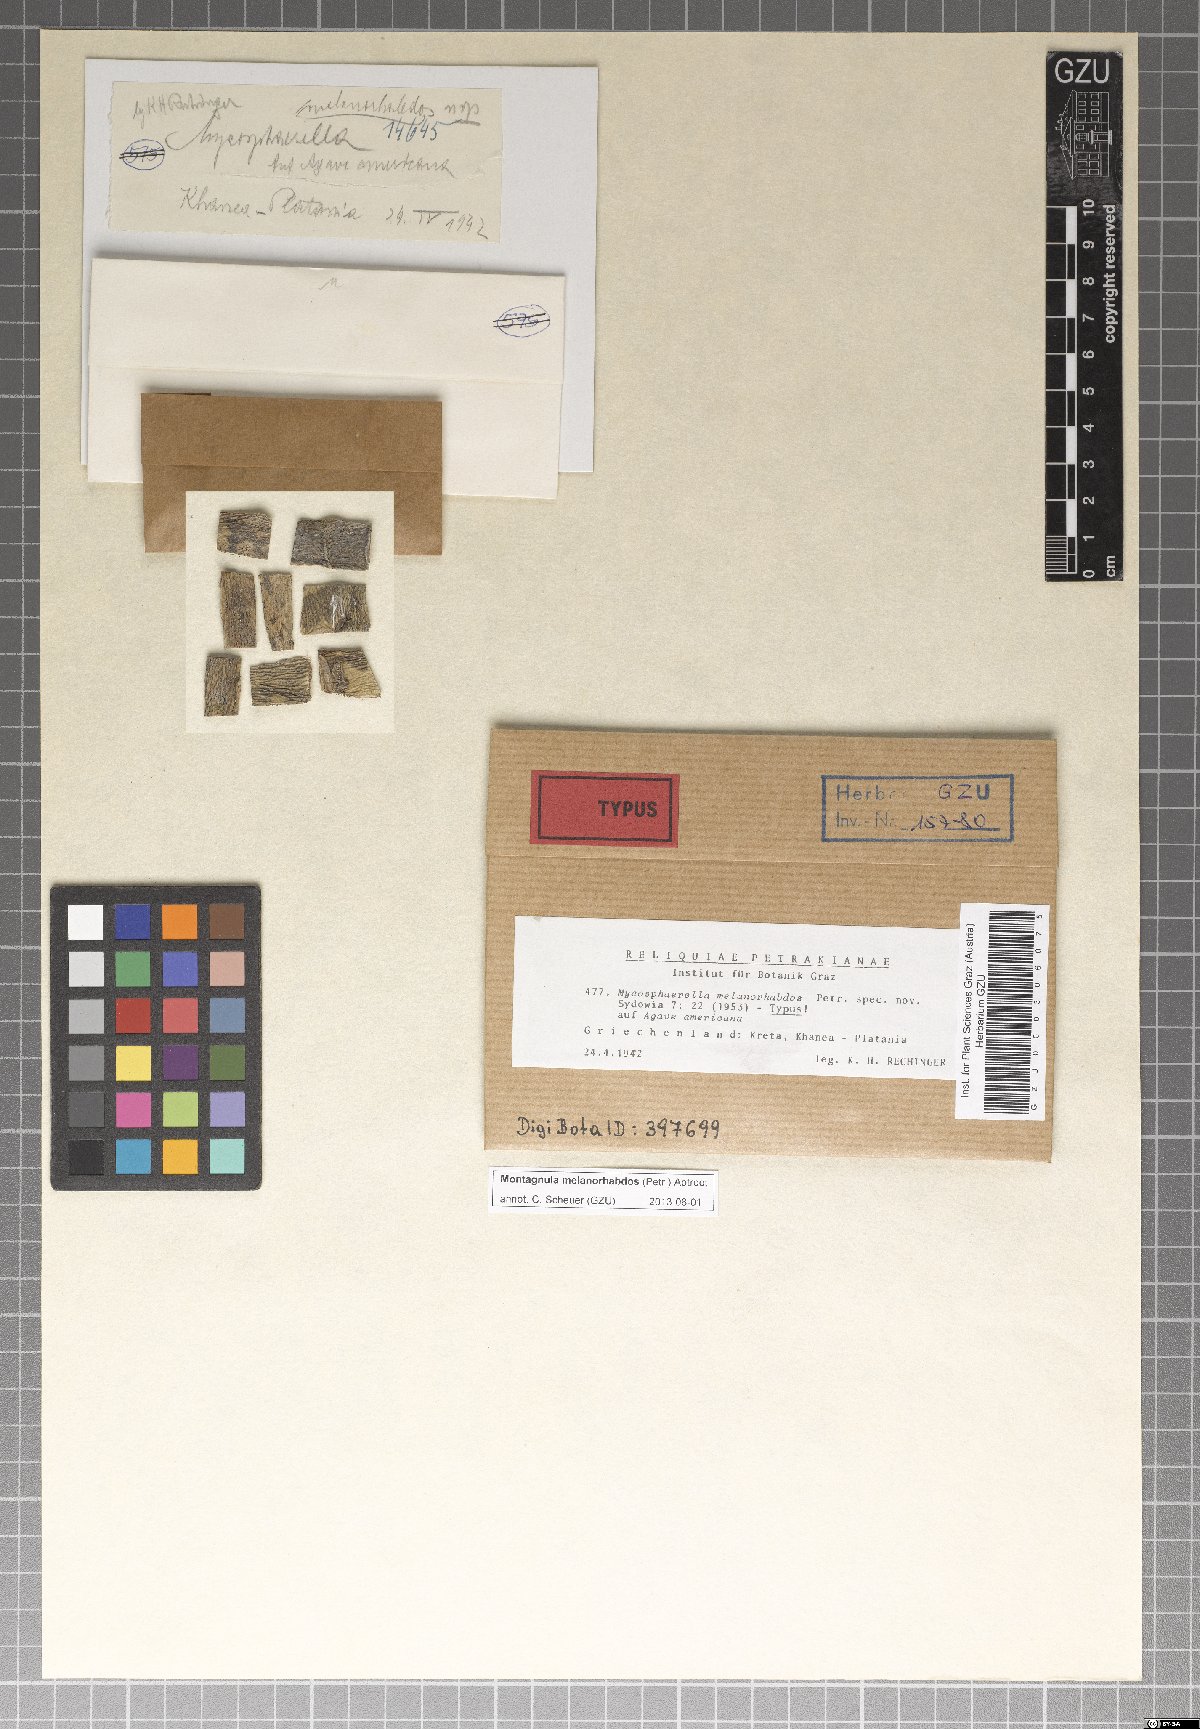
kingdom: Fungi
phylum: Ascomycota
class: Dothideomycetes
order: Pleosporales
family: Didymosphaeriaceae
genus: Montagnula
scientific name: Montagnula melanorhabdos
